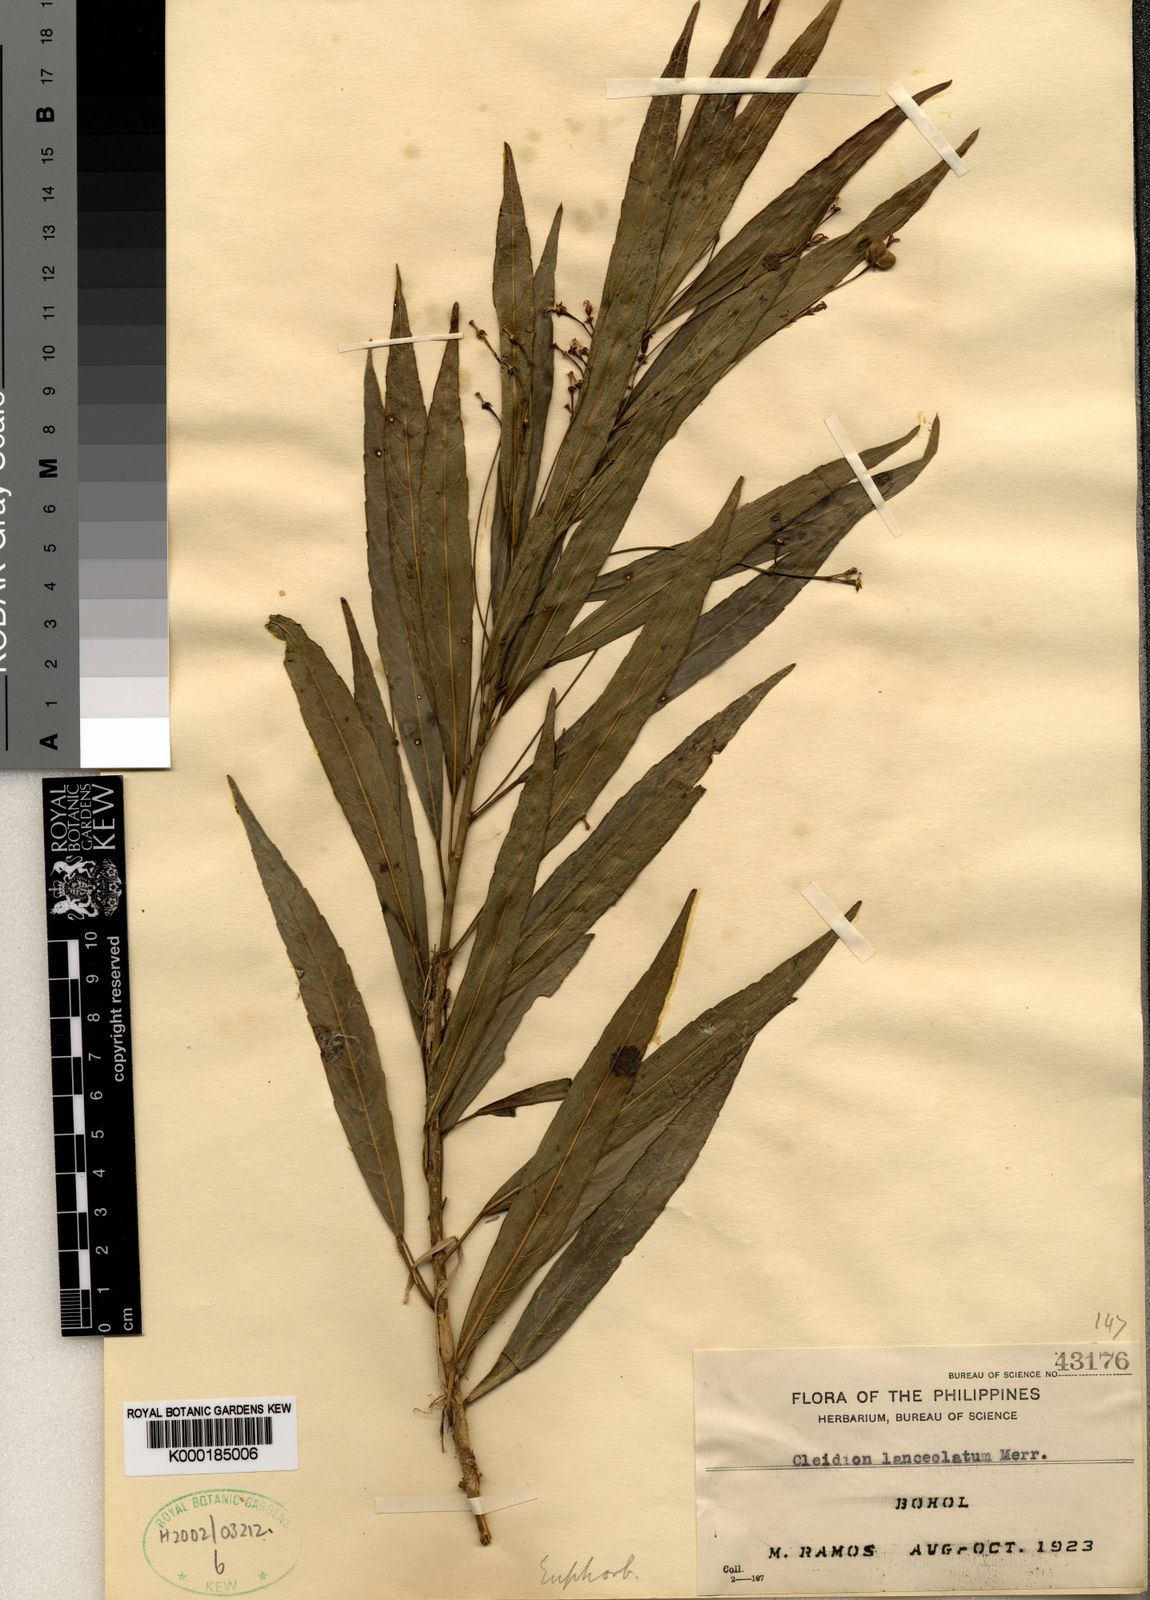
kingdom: Plantae
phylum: Tracheophyta
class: Magnoliopsida
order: Malpighiales
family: Euphorbiaceae
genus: Cleidion
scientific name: Cleidion ramosii
